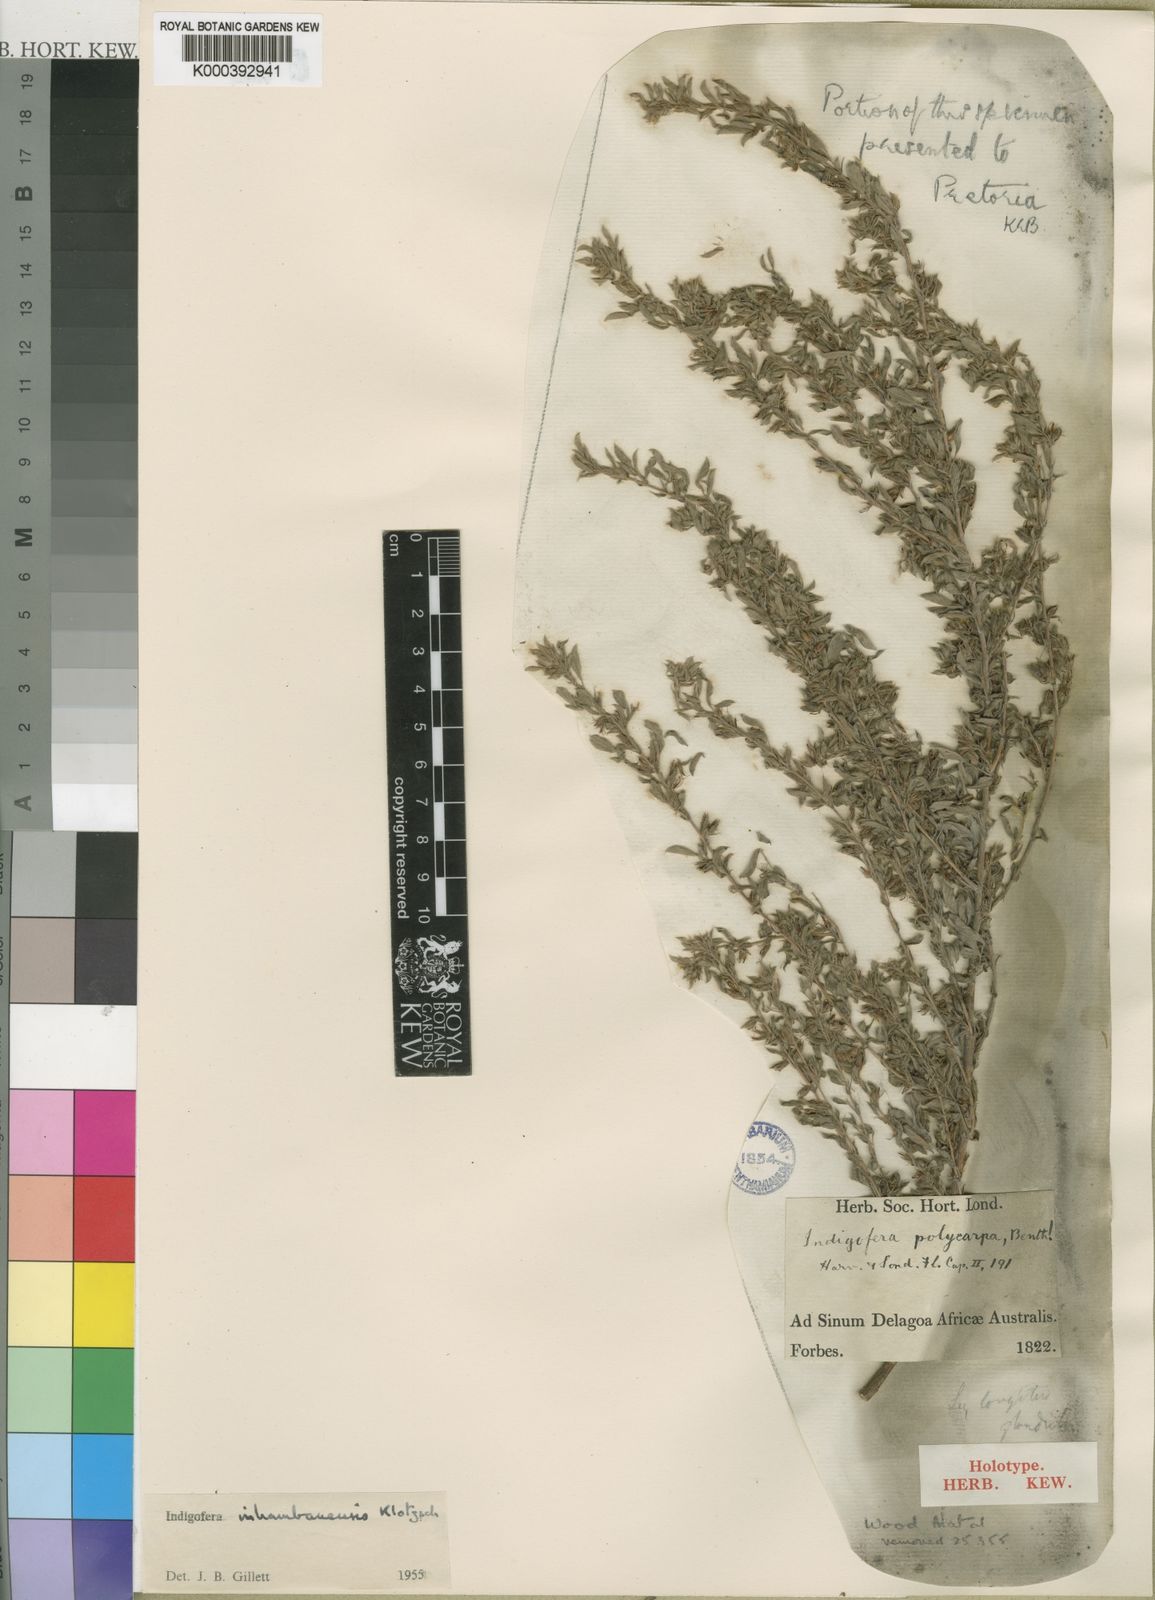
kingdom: Plantae
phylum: Tracheophyta
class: Magnoliopsida
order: Fabales
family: Fabaceae
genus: Indigofera
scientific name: Indigofera inhambanensis
